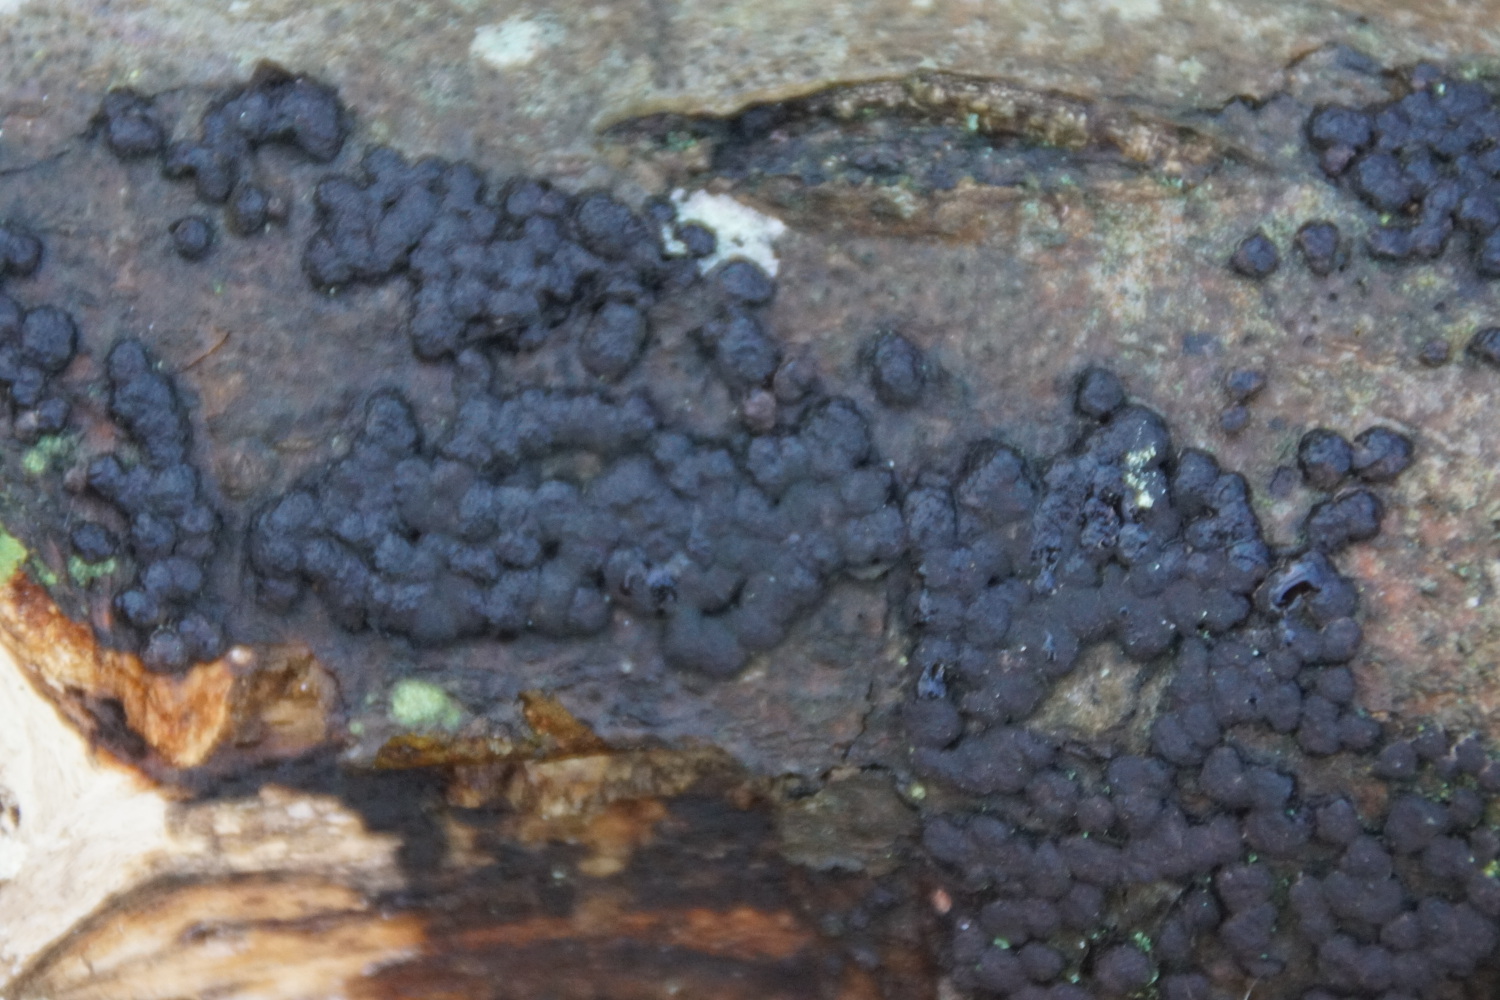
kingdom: Fungi
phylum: Ascomycota
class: Sordariomycetes
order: Xylariales
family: Hypoxylaceae
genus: Jackrogersella
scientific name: Jackrogersella cohaerens
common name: sammenflydende kulbær
